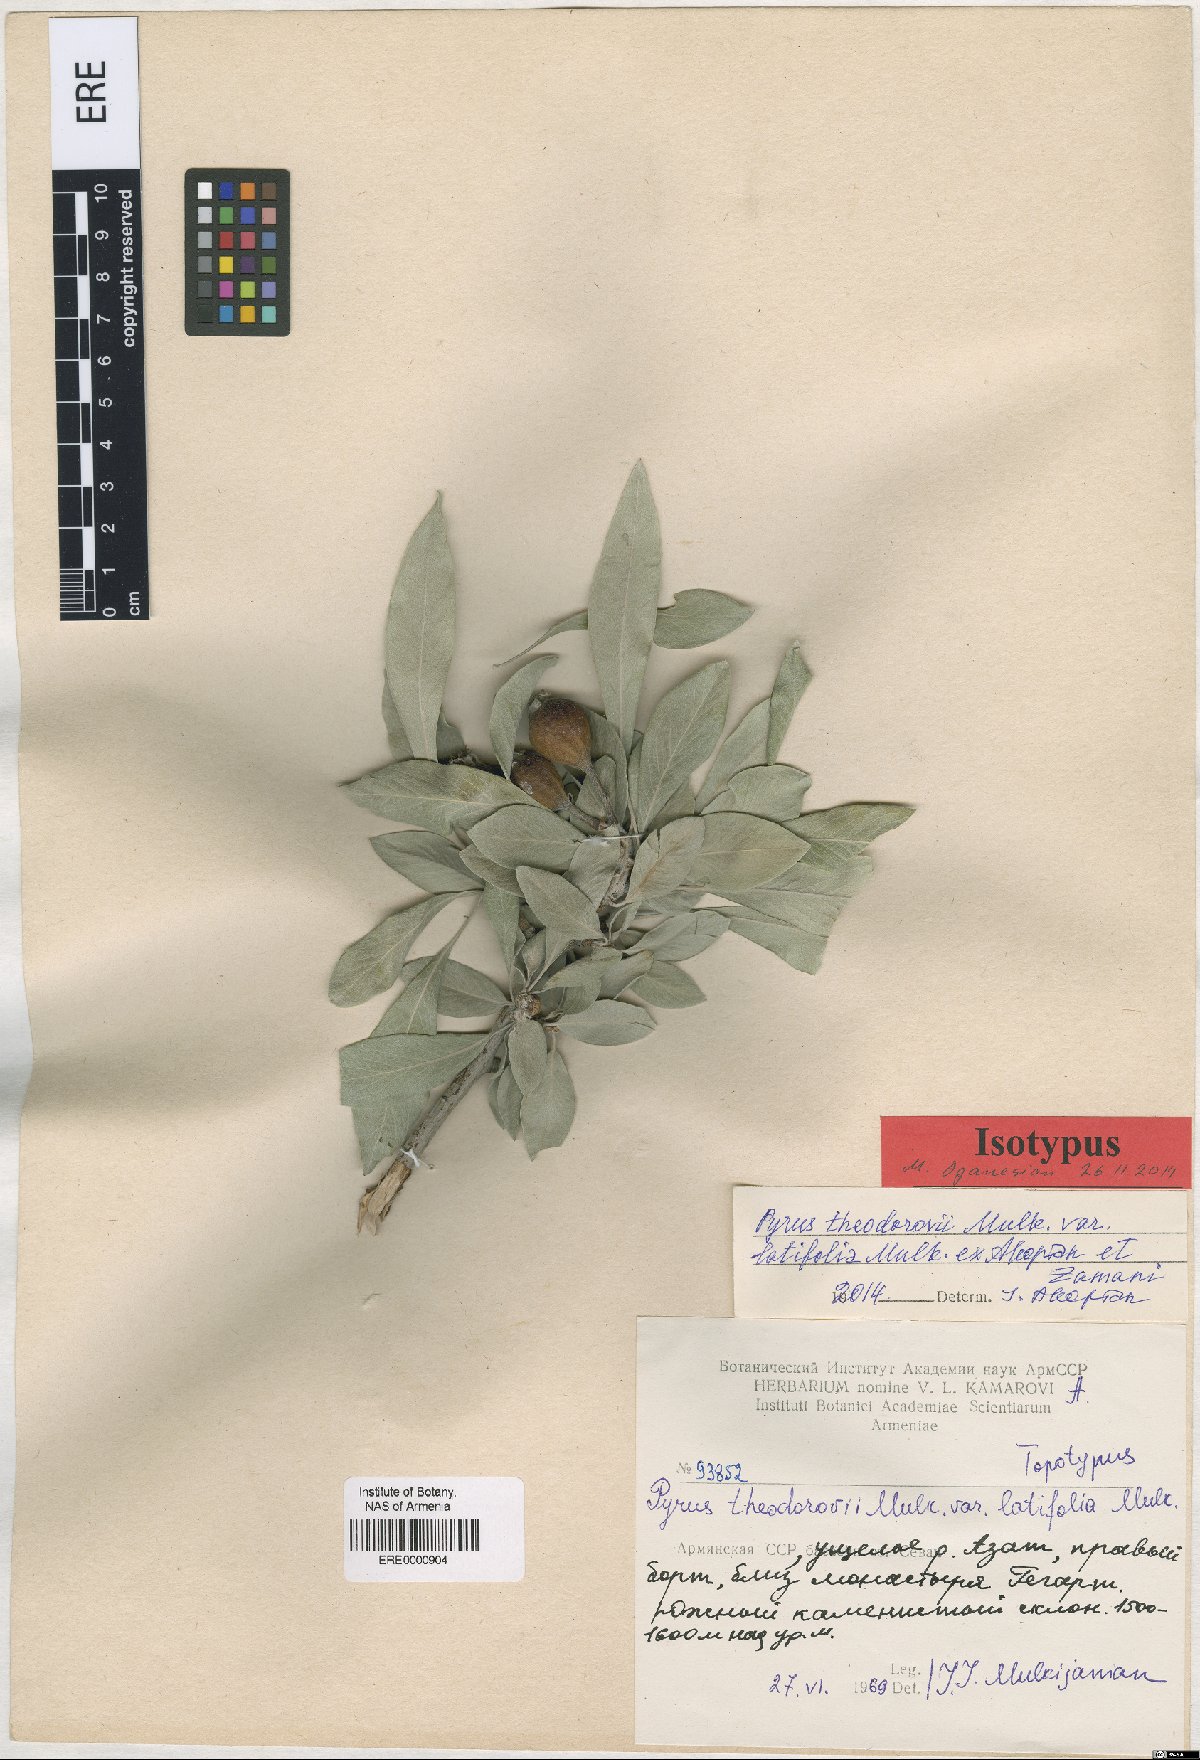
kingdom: Plantae
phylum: Tracheophyta
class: Magnoliopsida
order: Rosales
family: Rosaceae
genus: Pyrus
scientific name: Pyrus theodorovii
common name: Teodorov's pear
